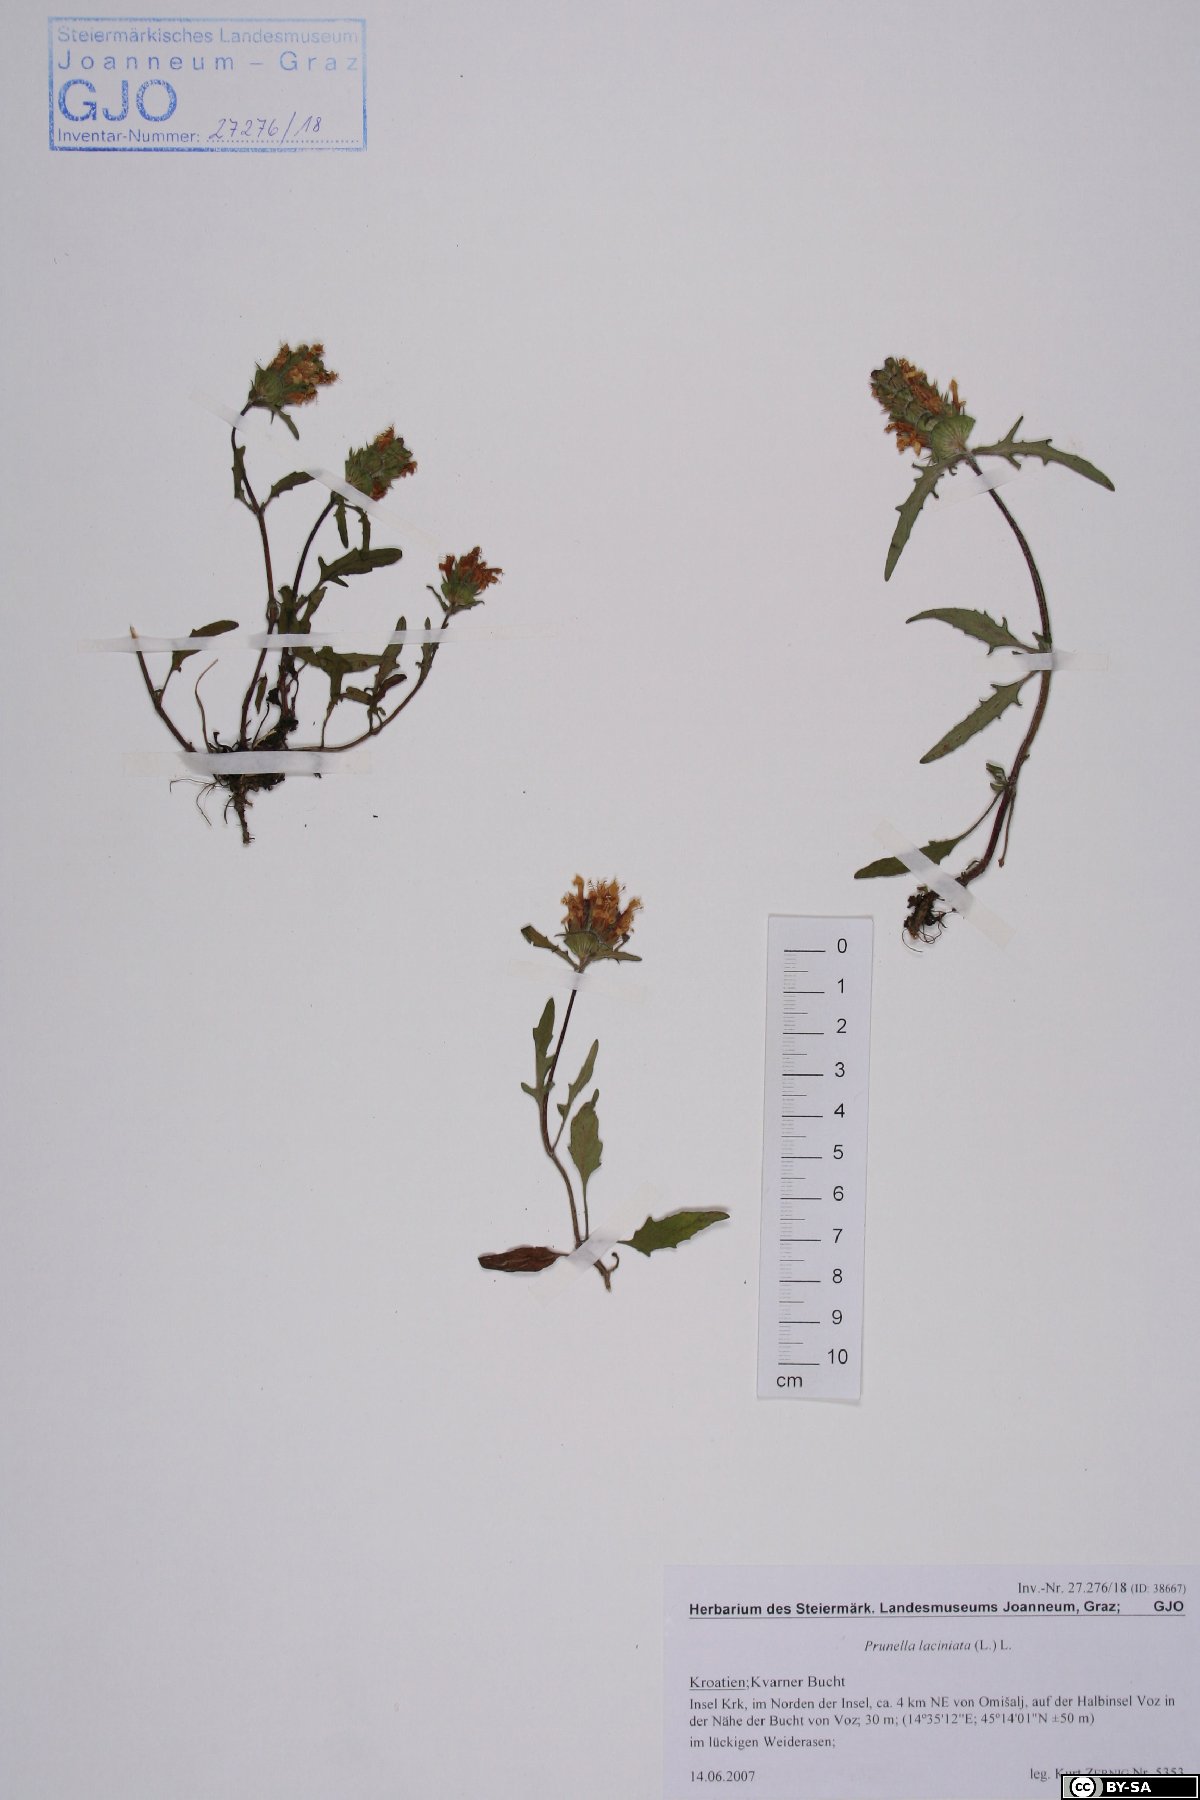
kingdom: Plantae
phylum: Tracheophyta
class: Magnoliopsida
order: Lamiales
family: Lamiaceae
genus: Prunella
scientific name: Prunella laciniata
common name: Cut-leaved selfheal
